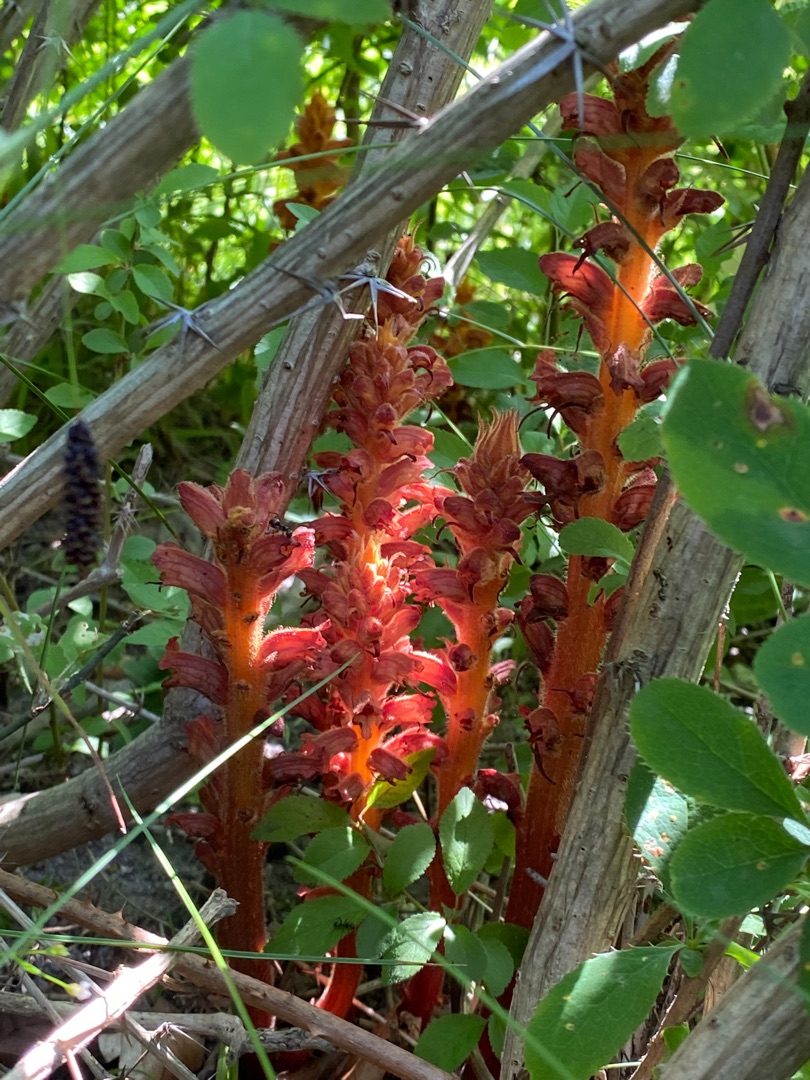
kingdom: Plantae
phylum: Tracheophyta
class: Magnoliopsida
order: Lamiales
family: Orobanchaceae
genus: Orobanche
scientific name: Orobanche lucorum
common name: Berberis-gyvelkvæler
